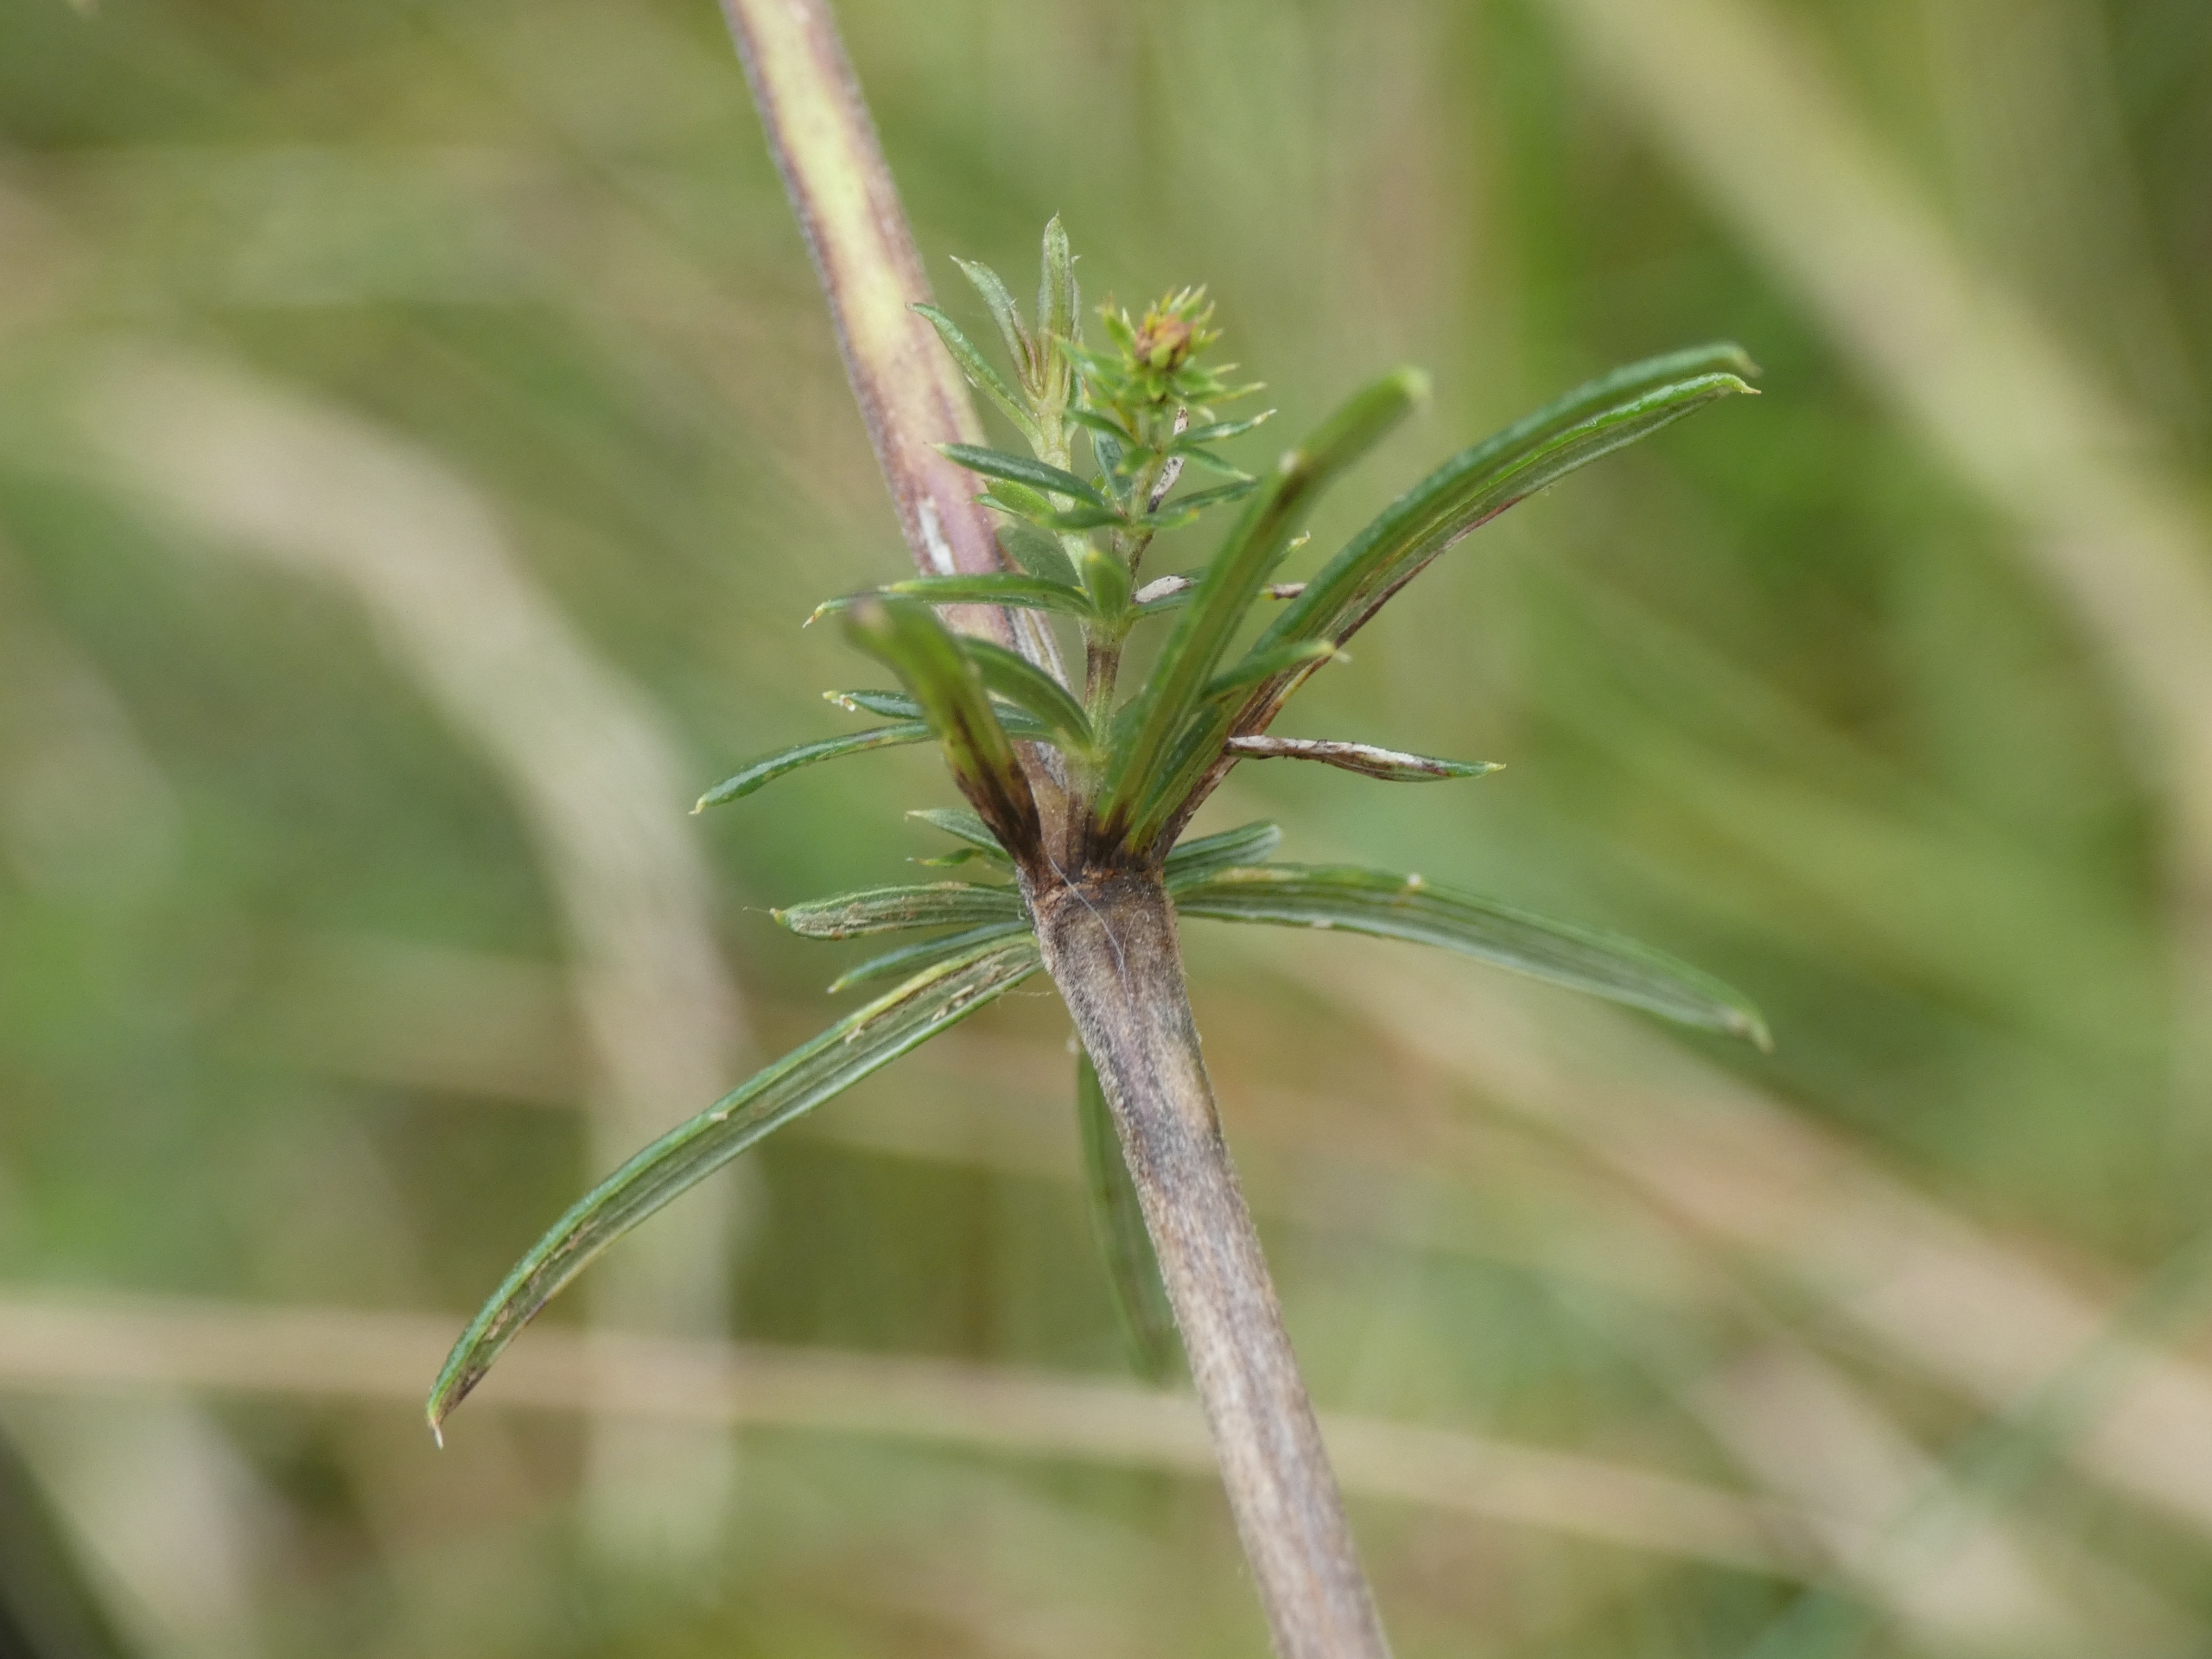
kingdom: Plantae
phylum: Tracheophyta
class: Magnoliopsida
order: Gentianales
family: Rubiaceae
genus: Galium
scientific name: Galium verum
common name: Gul snerre
